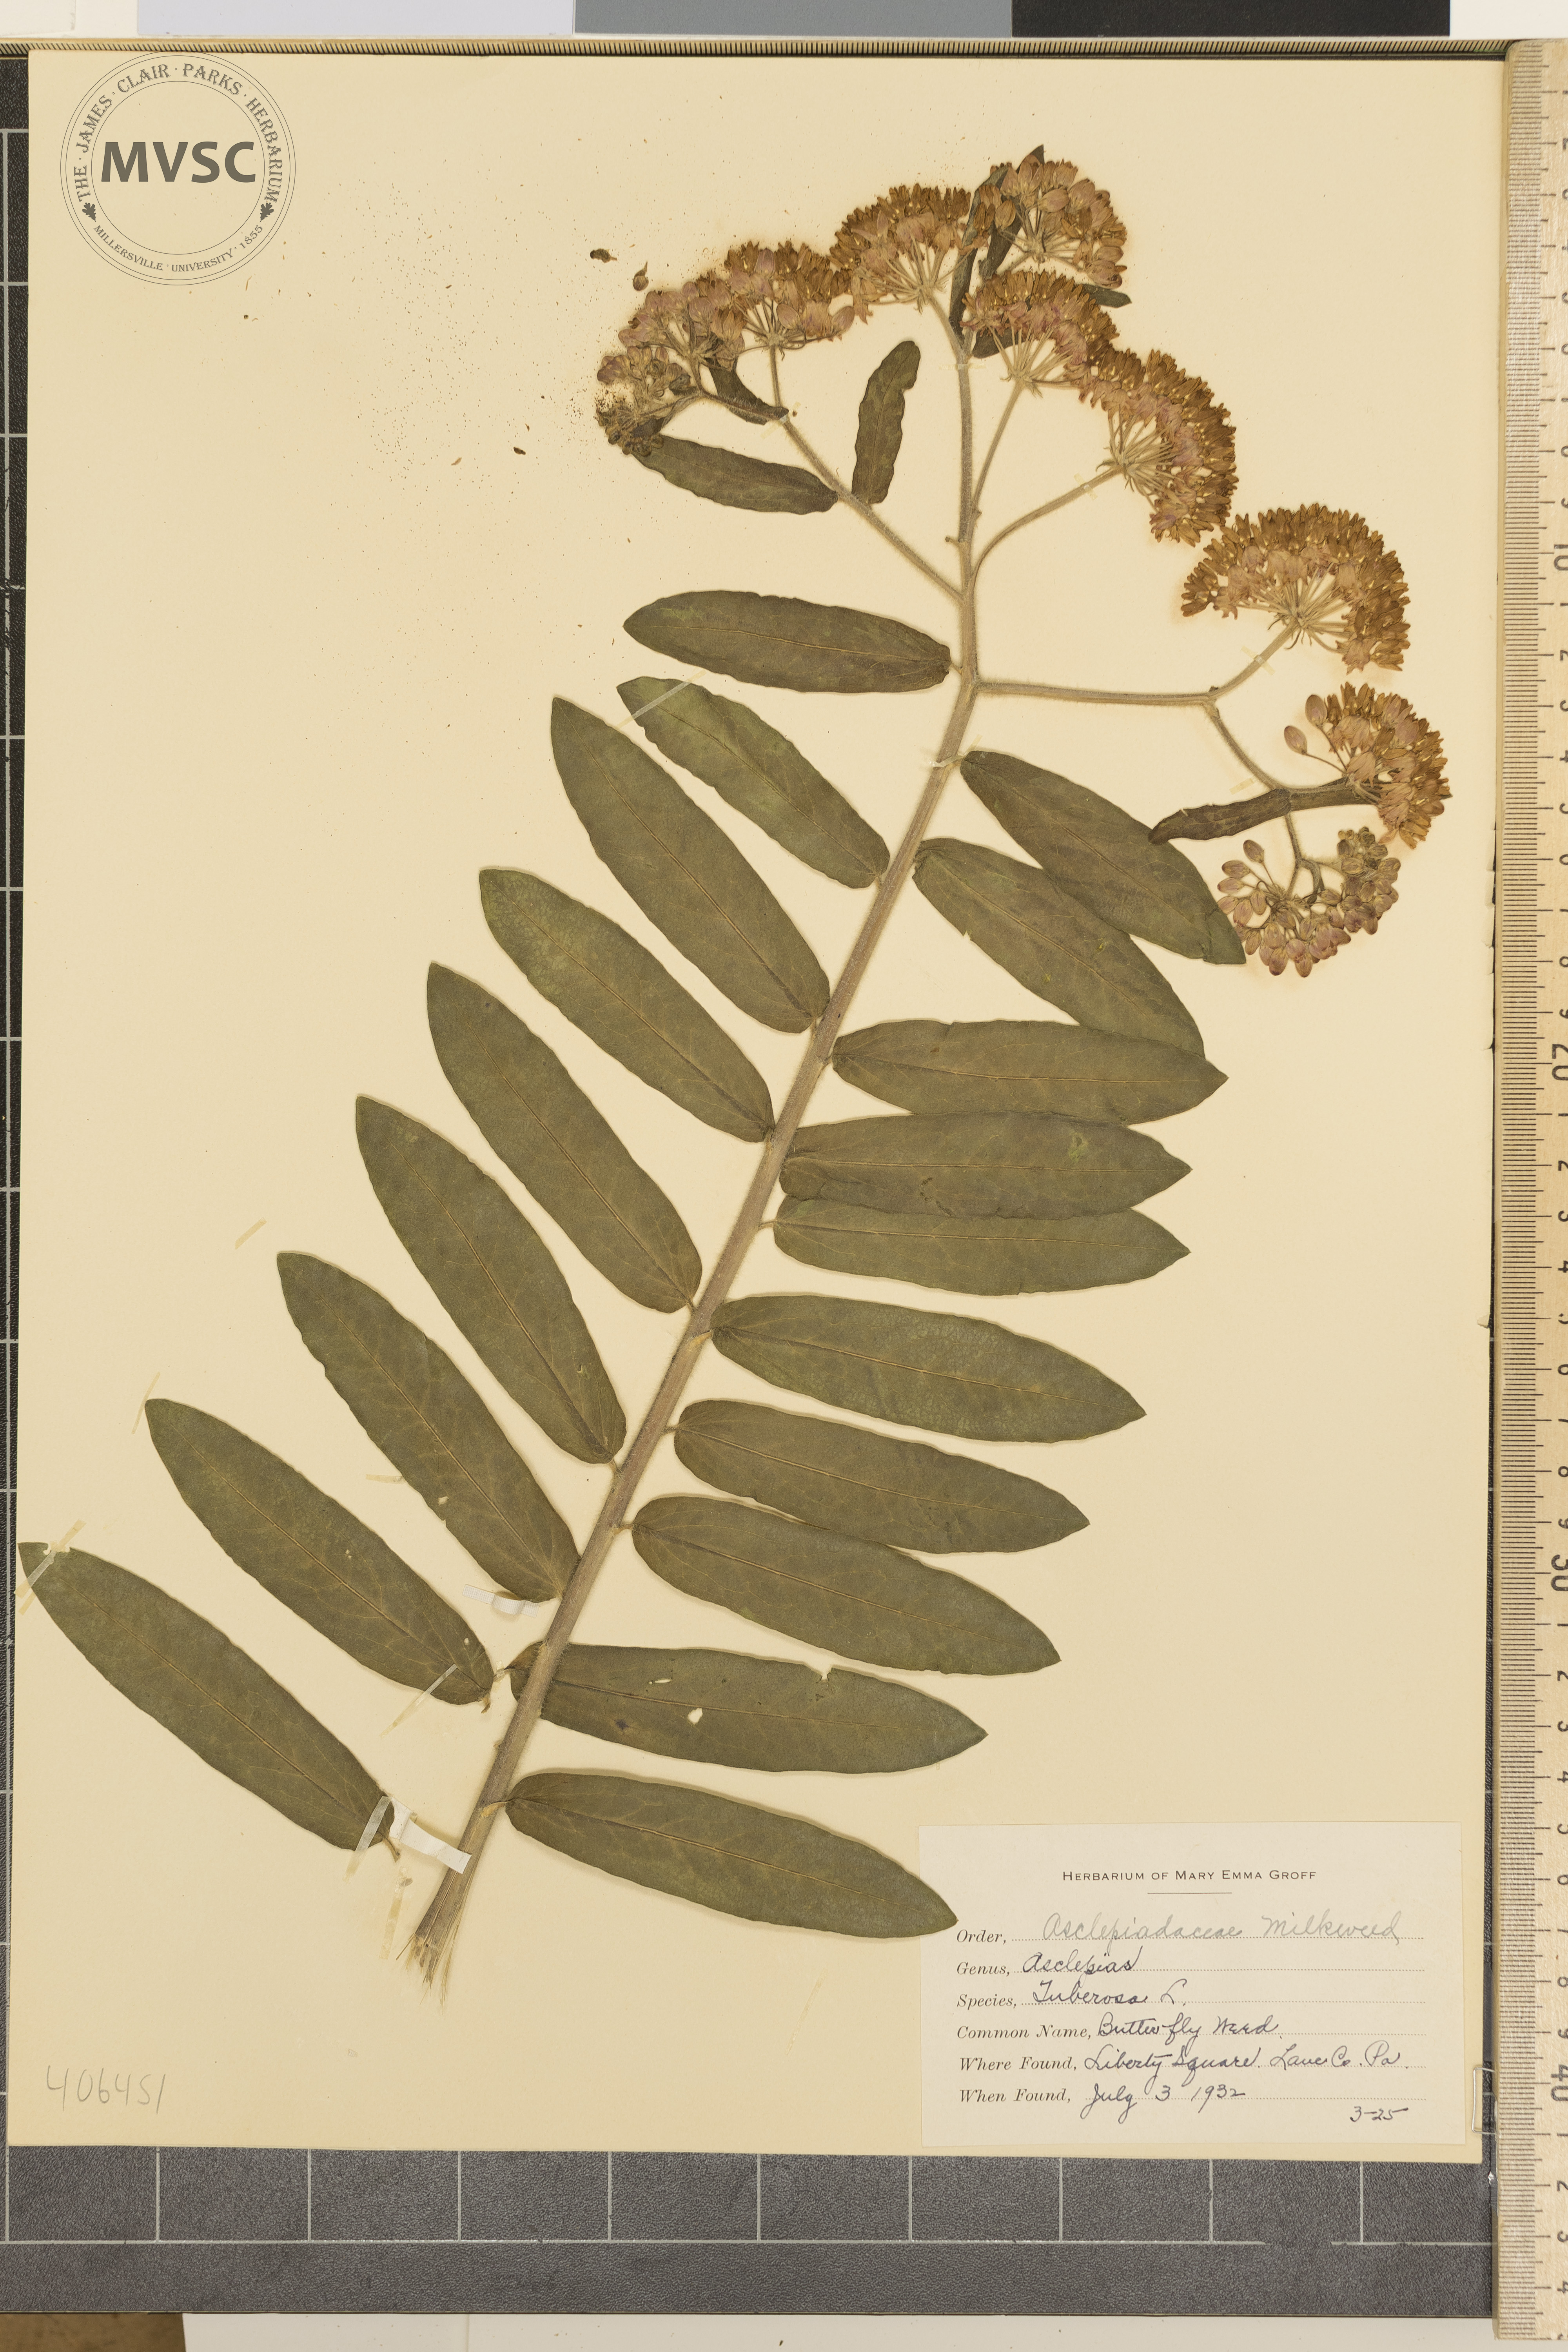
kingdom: Plantae
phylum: Tracheophyta
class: Magnoliopsida
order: Gentianales
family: Apocynaceae
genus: Asclepias
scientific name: Asclepias tuberosa
